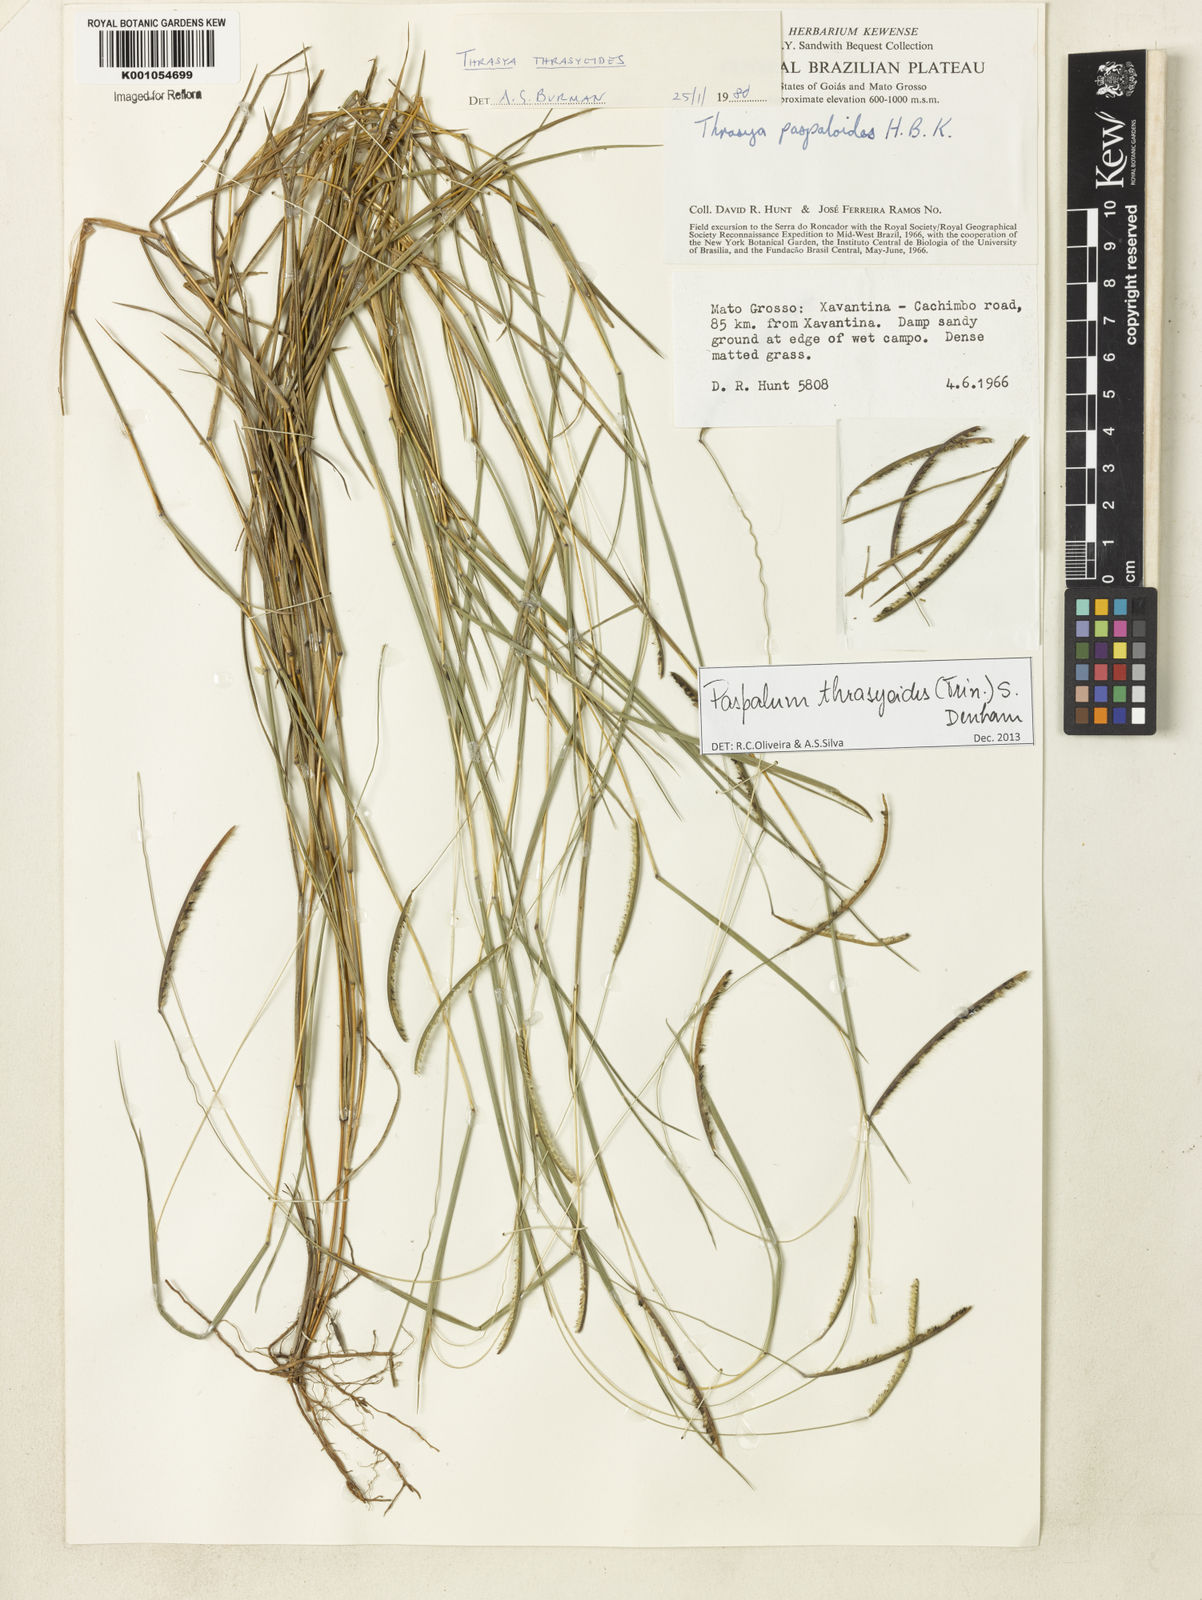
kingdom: Plantae
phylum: Tracheophyta
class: Liliopsida
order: Poales
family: Poaceae
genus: Paspalum
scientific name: Paspalum thrasyoides
